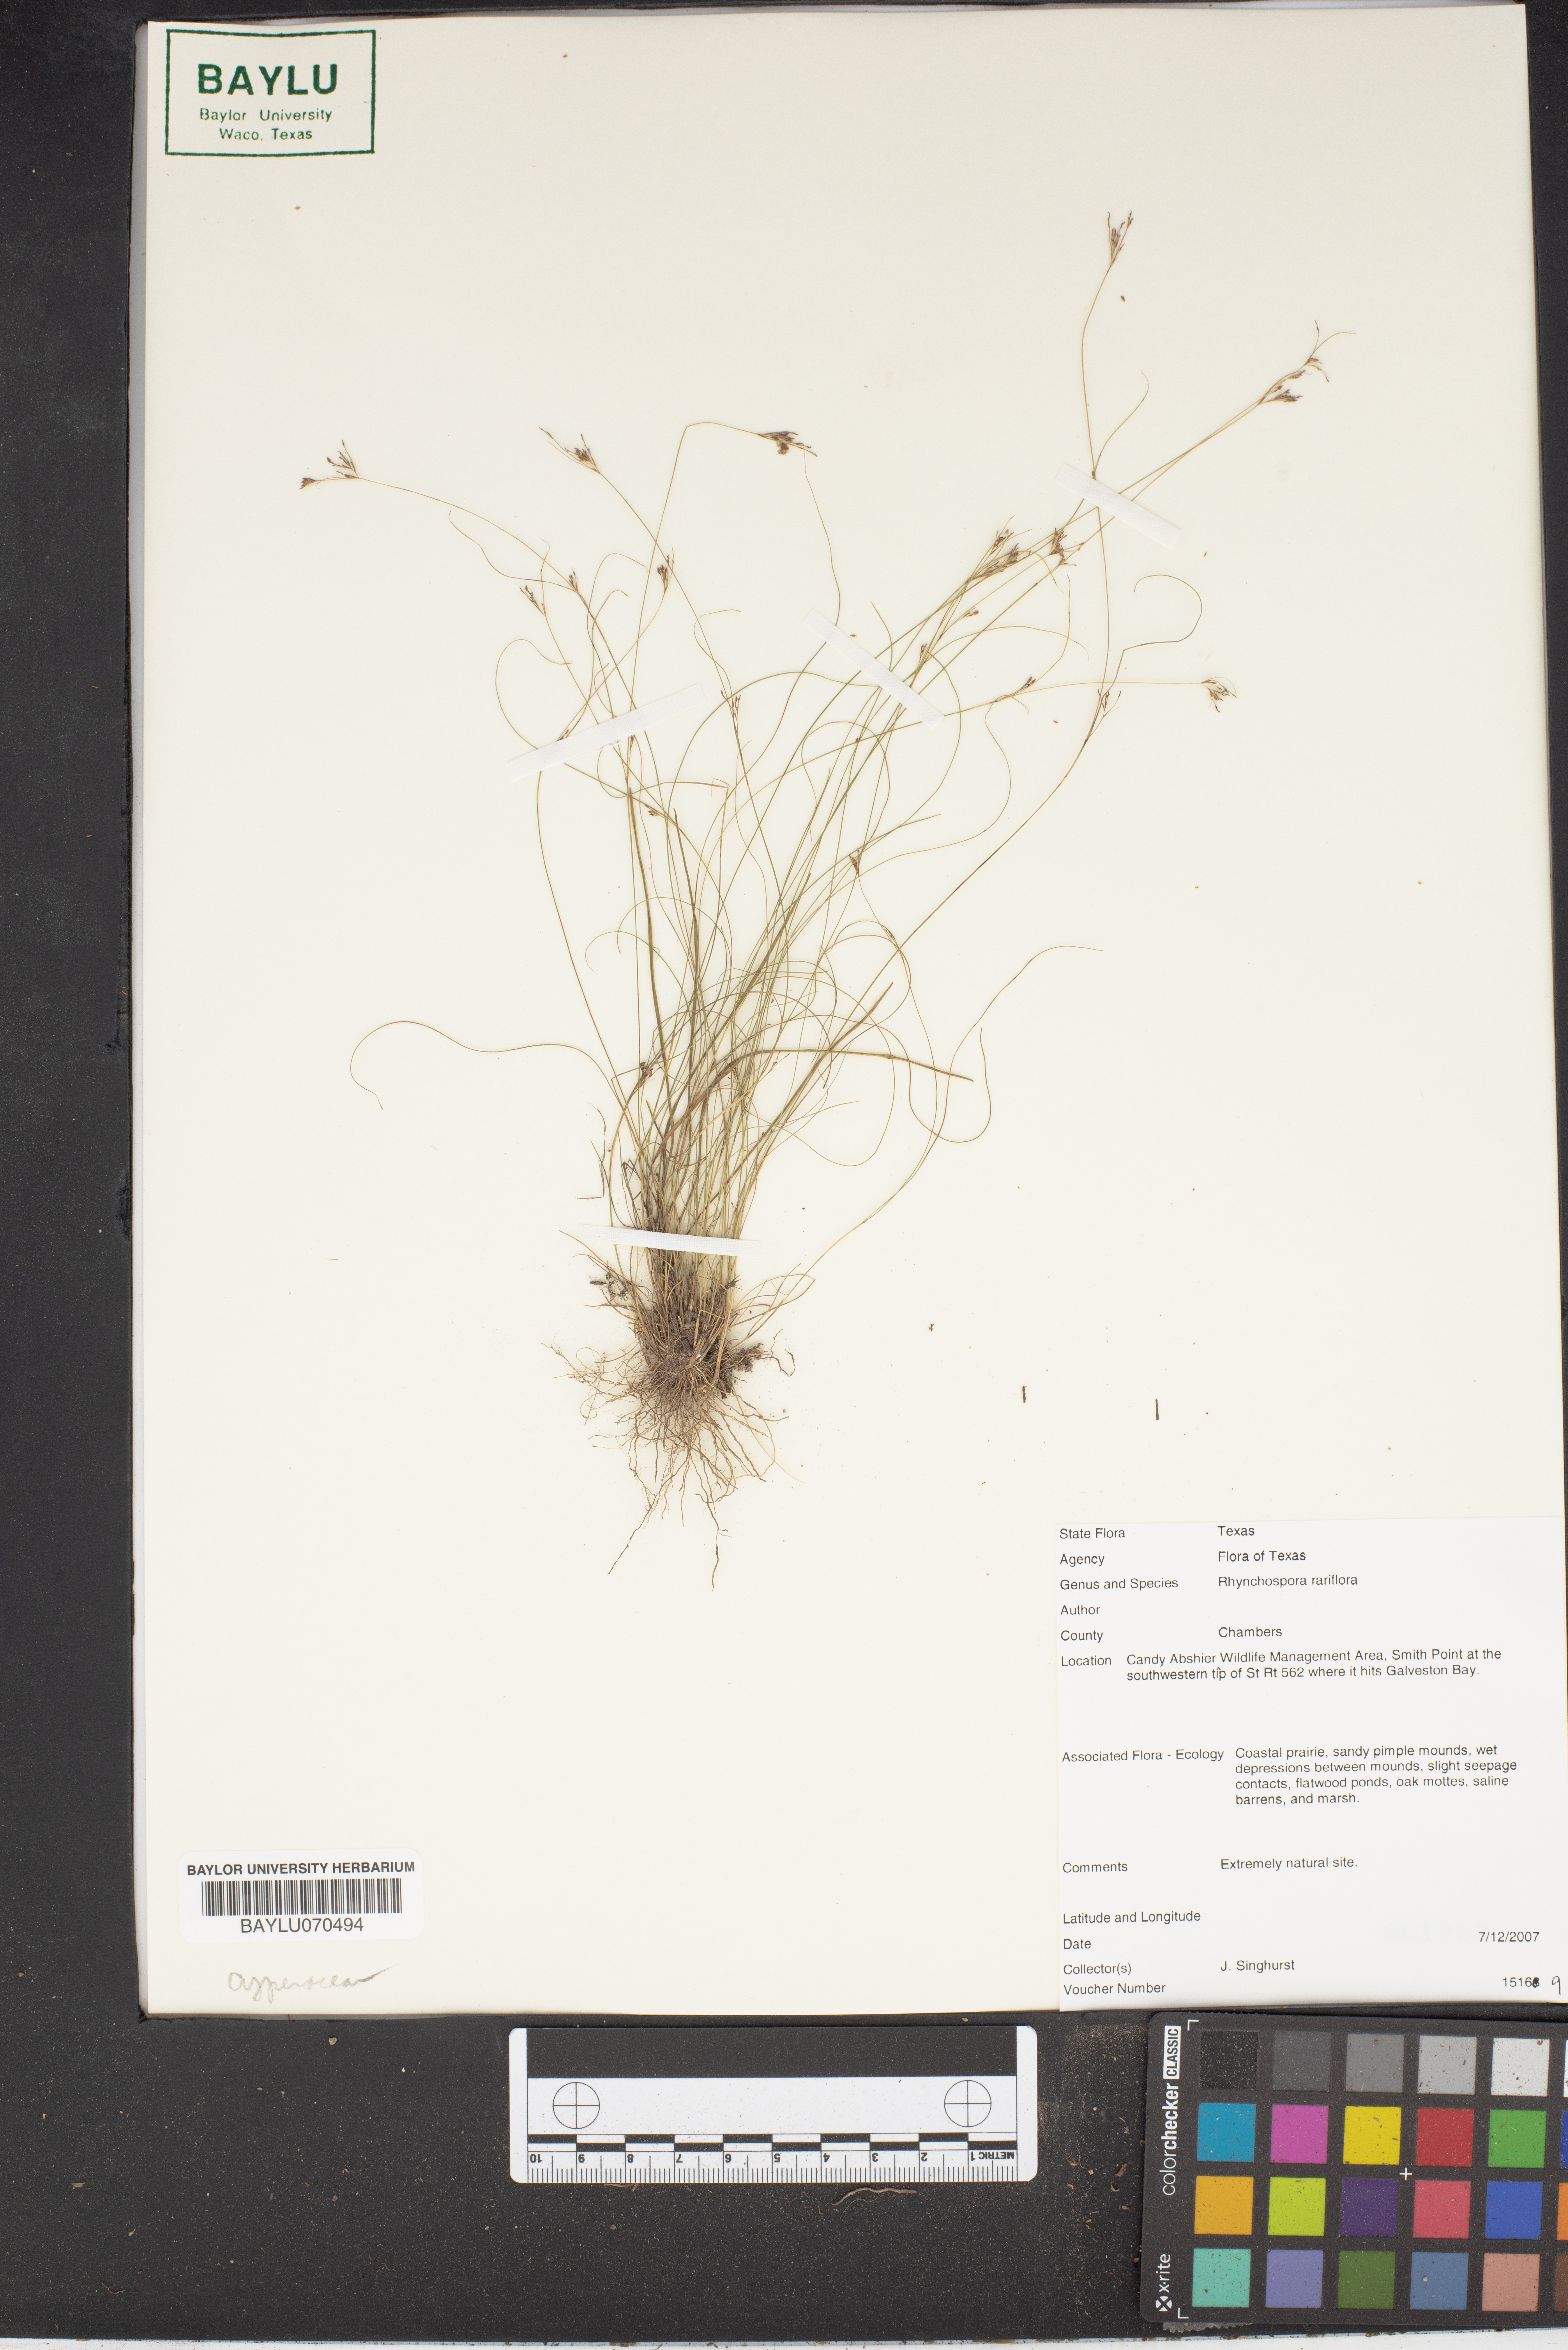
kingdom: Plantae
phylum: Tracheophyta
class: Liliopsida
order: Poales
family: Cyperaceae
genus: Rhynchospora
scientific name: Rhynchospora rariflora
